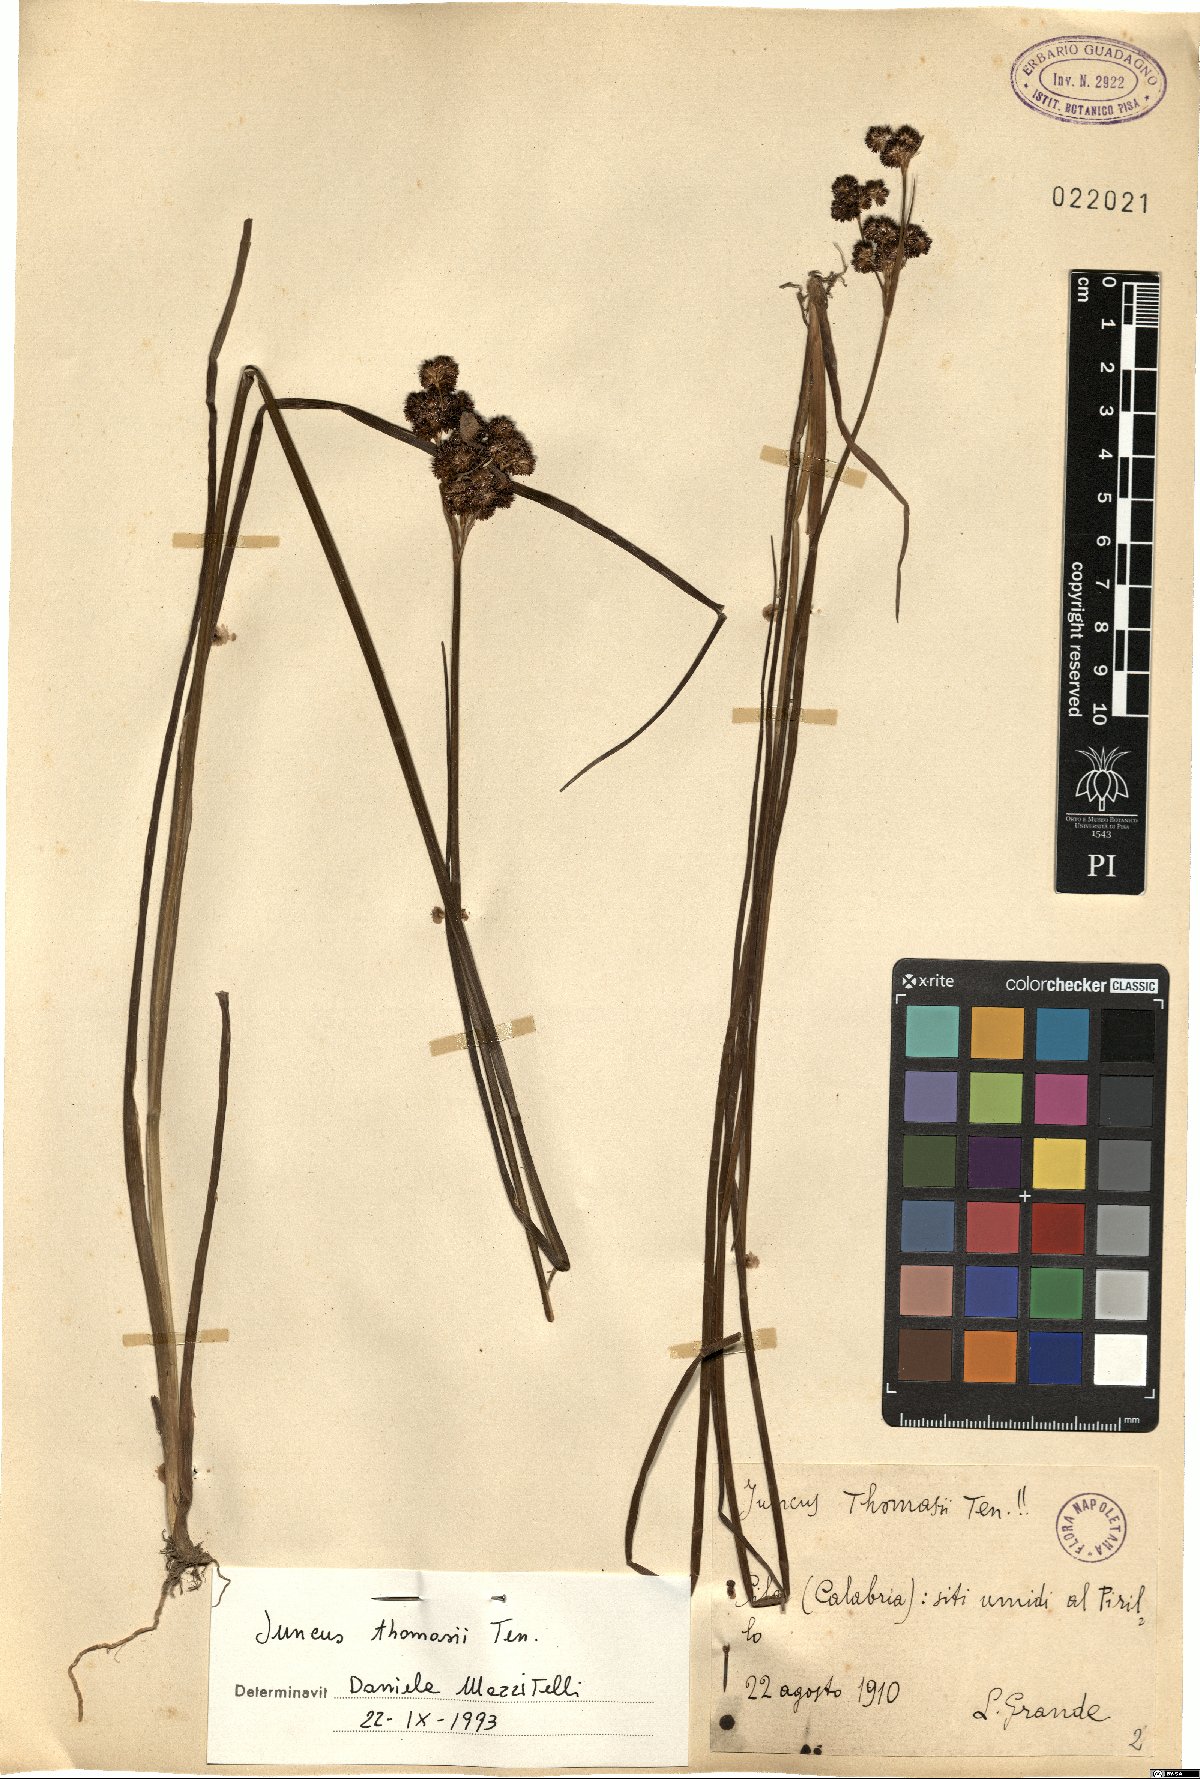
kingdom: Plantae
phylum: Tracheophyta
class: Liliopsida
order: Poales
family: Juncaceae
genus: Juncus
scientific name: Juncus thomasii
